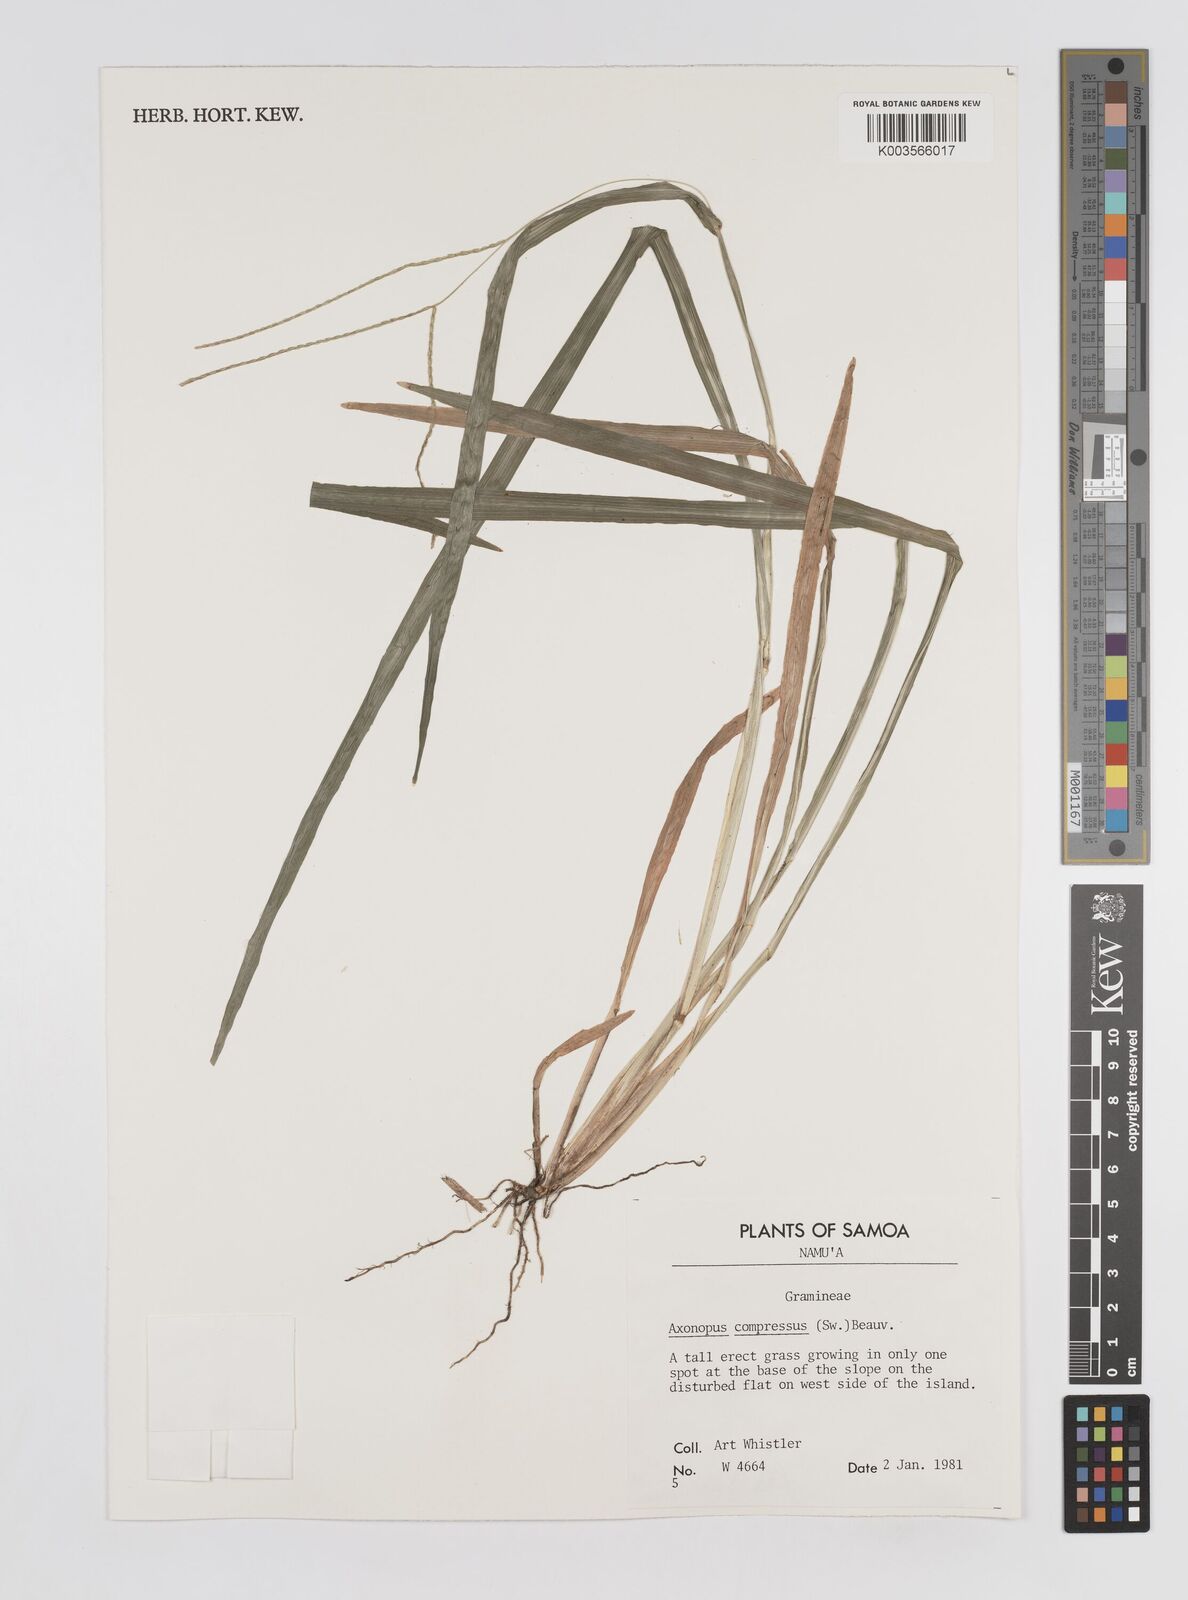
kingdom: Plantae
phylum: Tracheophyta
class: Liliopsida
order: Poales
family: Poaceae
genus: Axonopus
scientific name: Axonopus compressus
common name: American carpet grass
